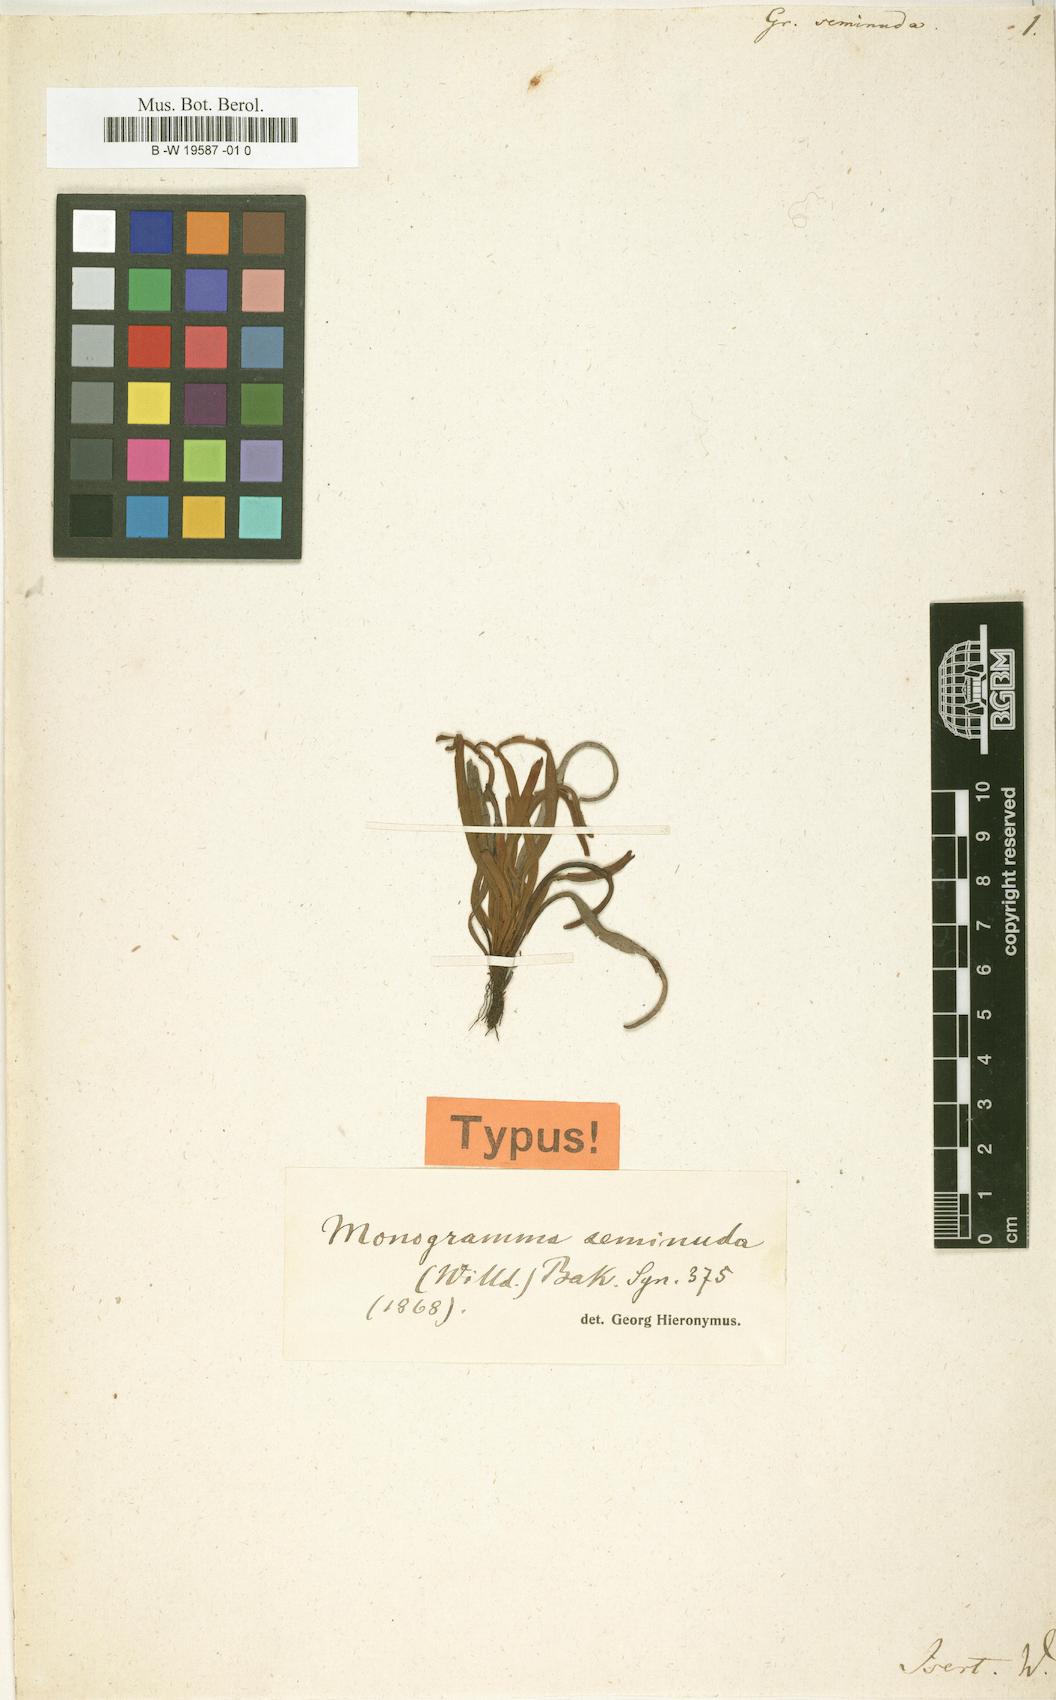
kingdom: Plantae
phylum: Tracheophyta
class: Polypodiopsida
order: Polypodiales
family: Polypodiaceae
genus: Cochlidium
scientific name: Cochlidium seminudum
